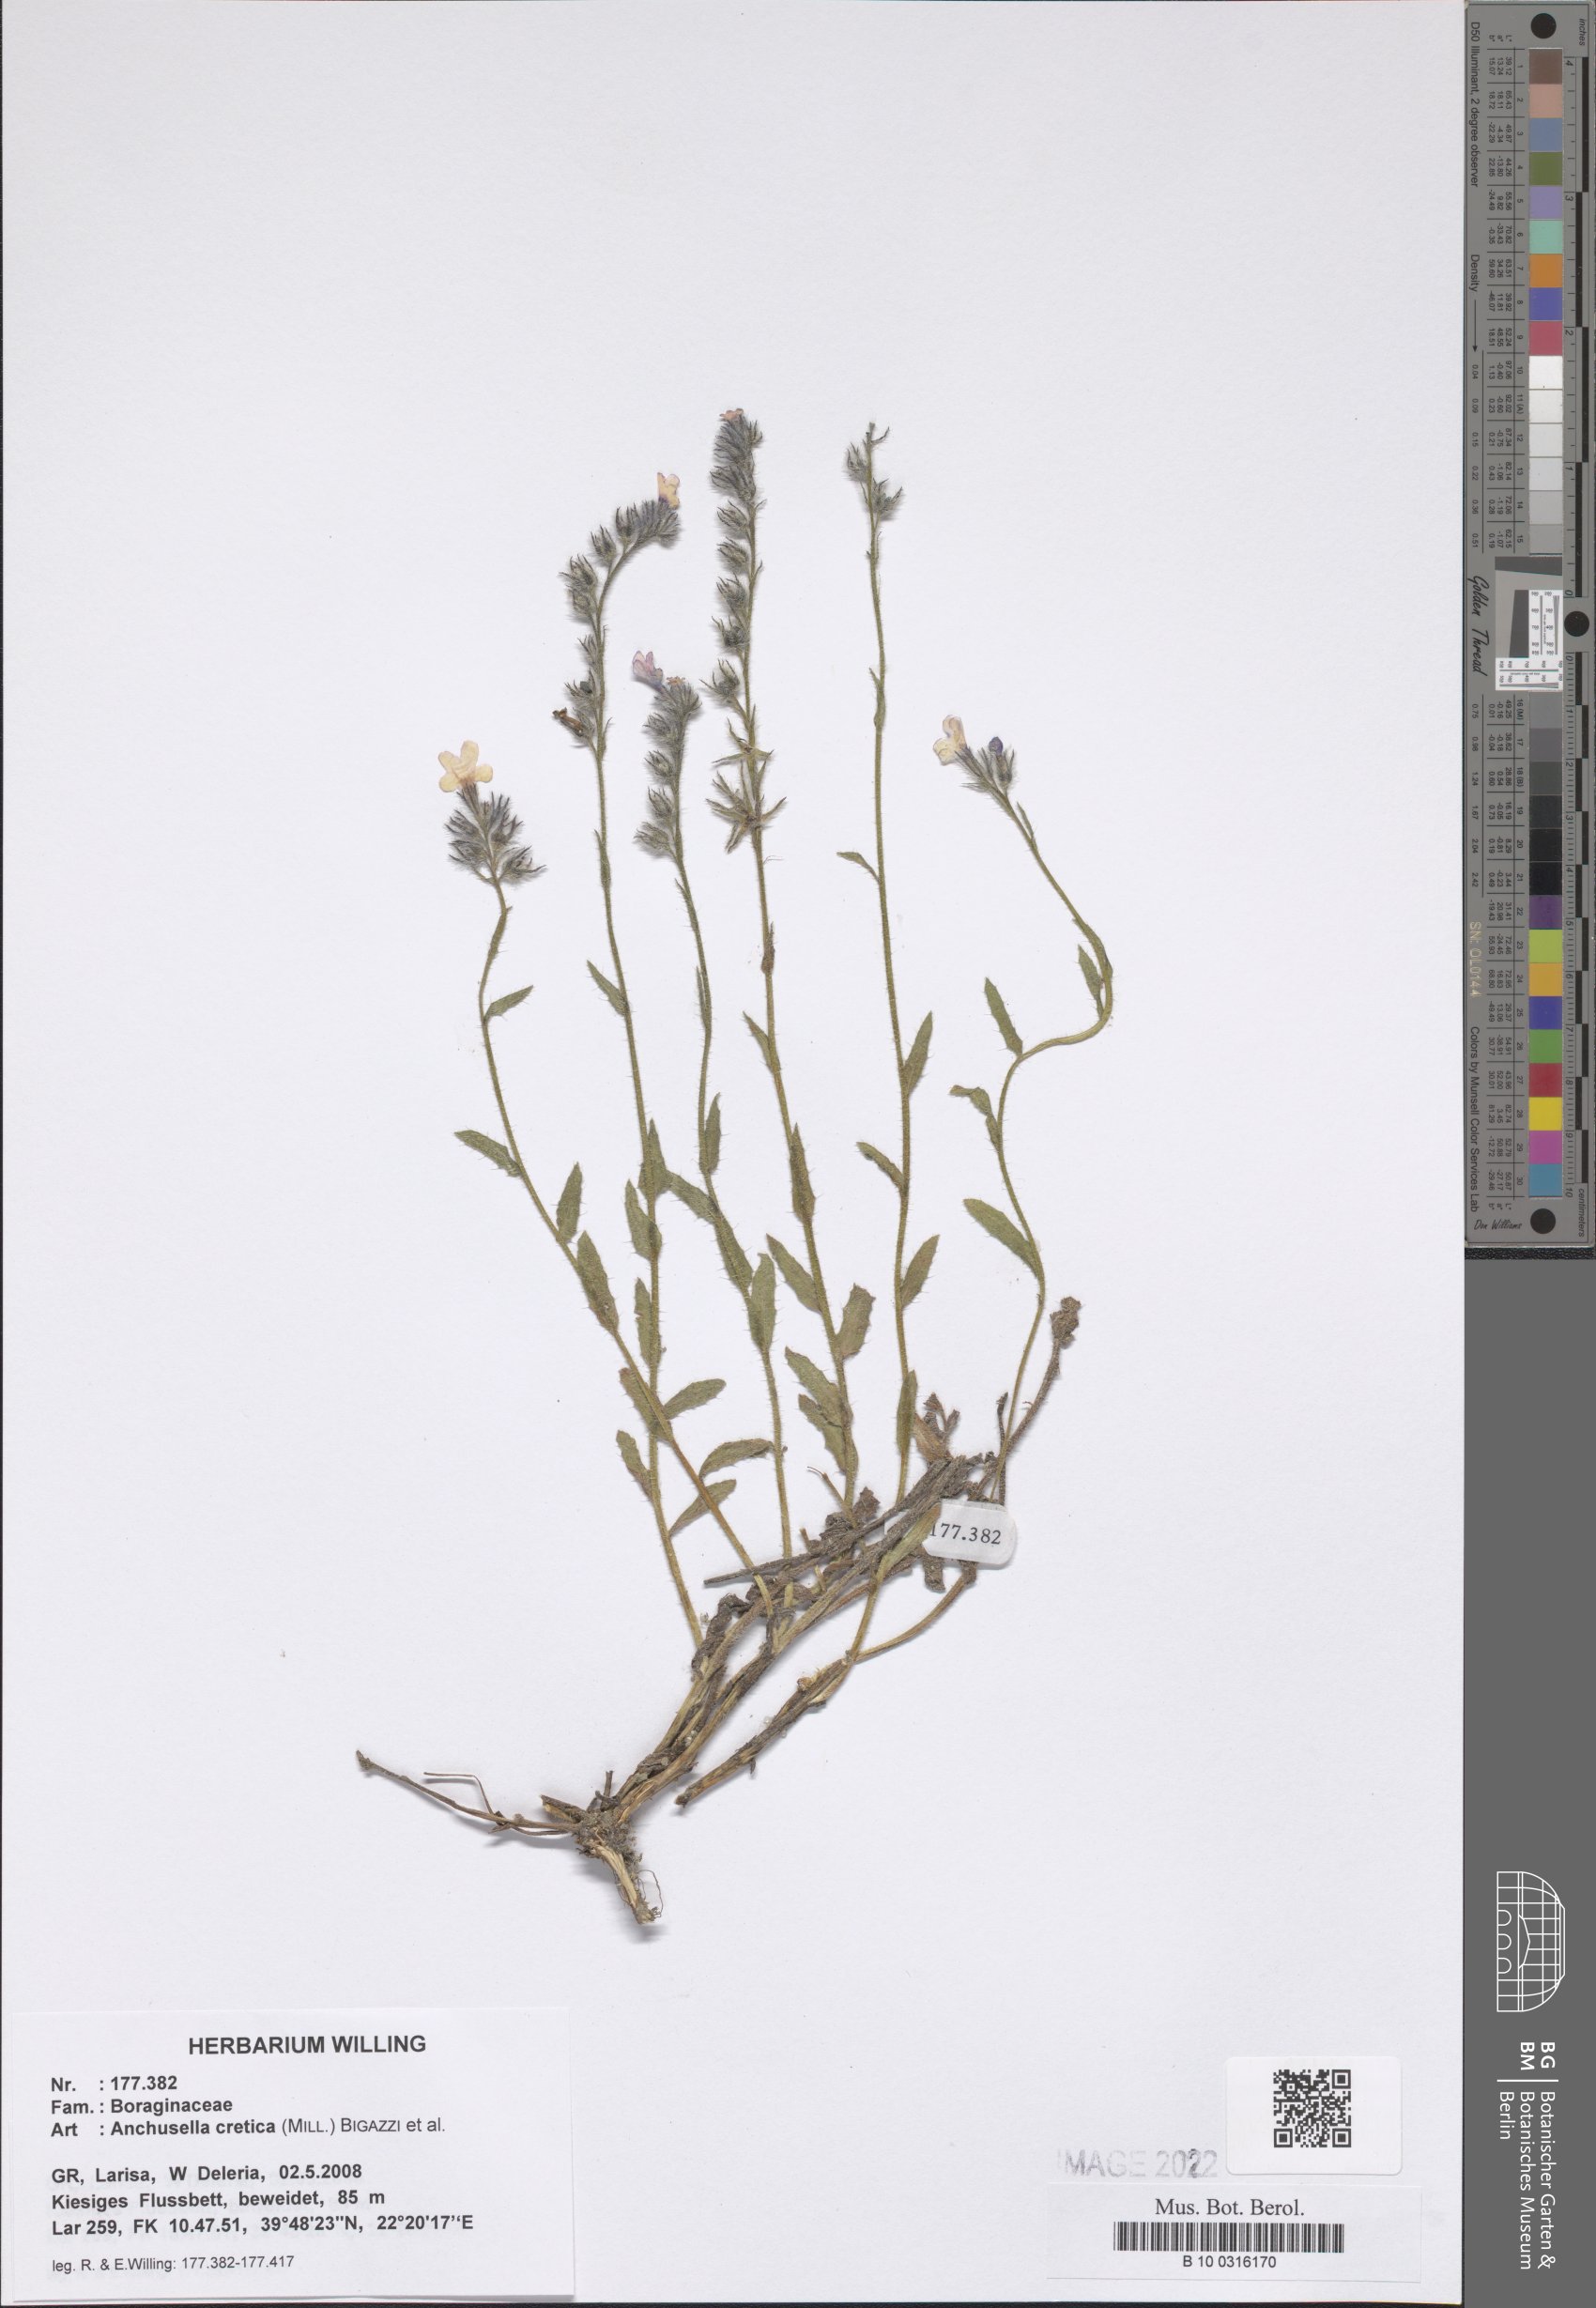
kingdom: Plantae
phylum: Tracheophyta
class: Magnoliopsida
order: Boraginales
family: Boraginaceae
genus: Anchusella
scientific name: Anchusella cretica
